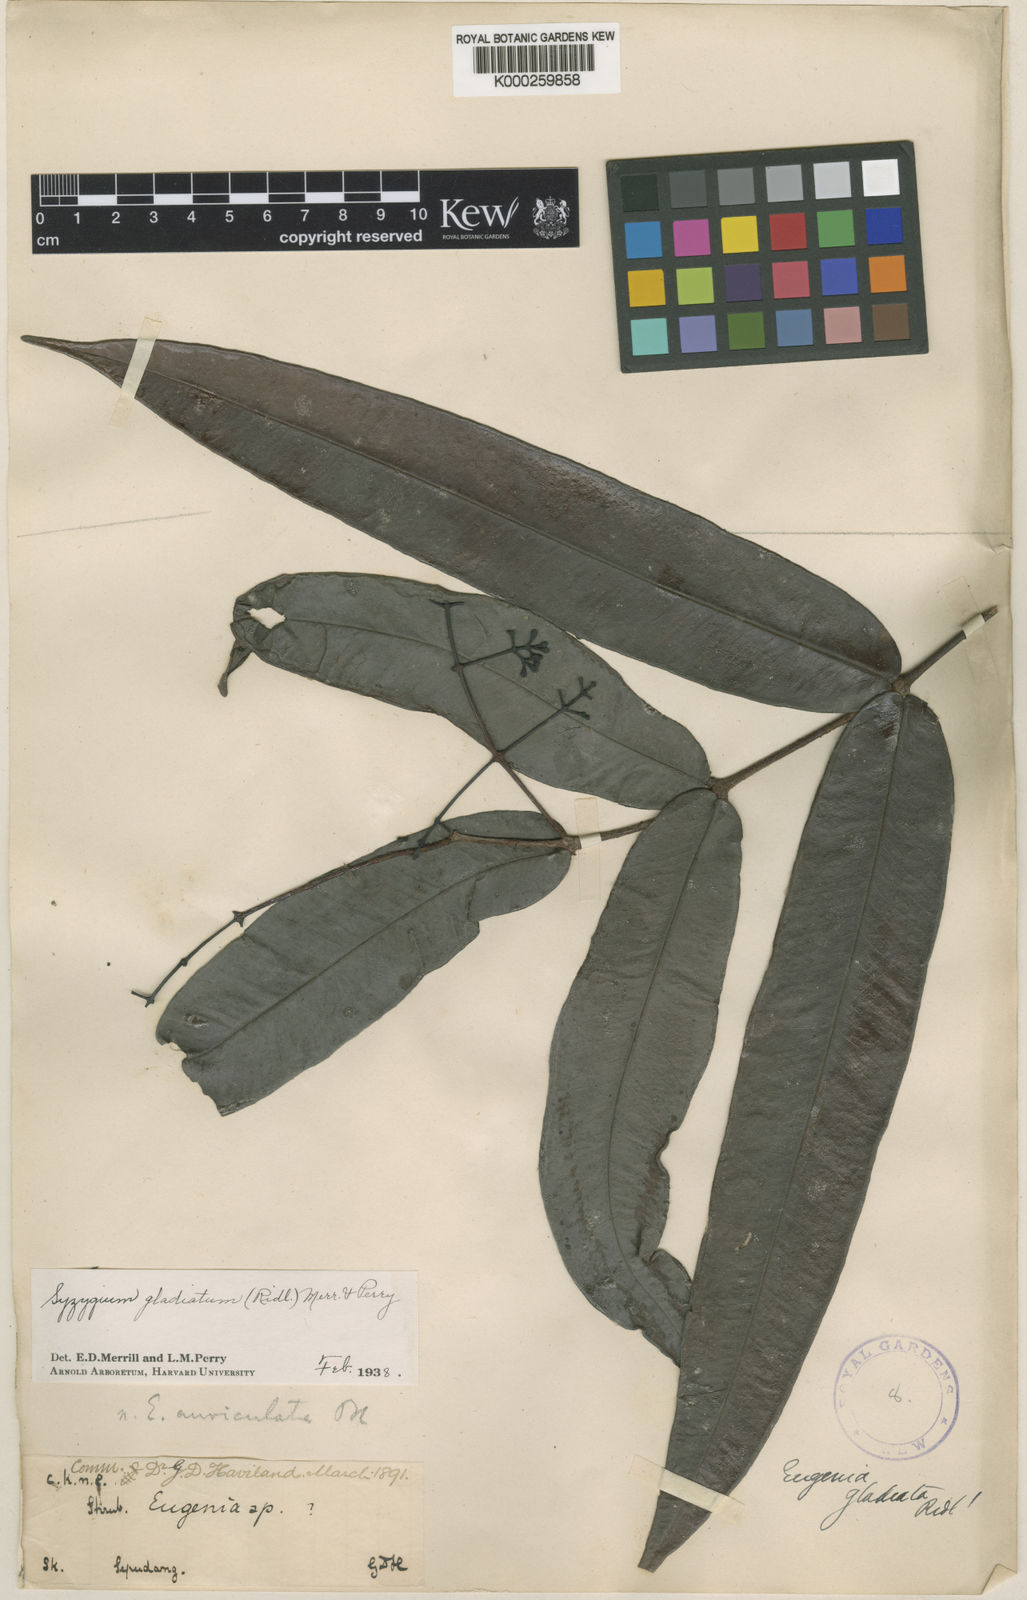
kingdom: Plantae
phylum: Tracheophyta
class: Magnoliopsida
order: Myrtales
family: Myrtaceae
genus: Syzygium
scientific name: Syzygium gladiatum
